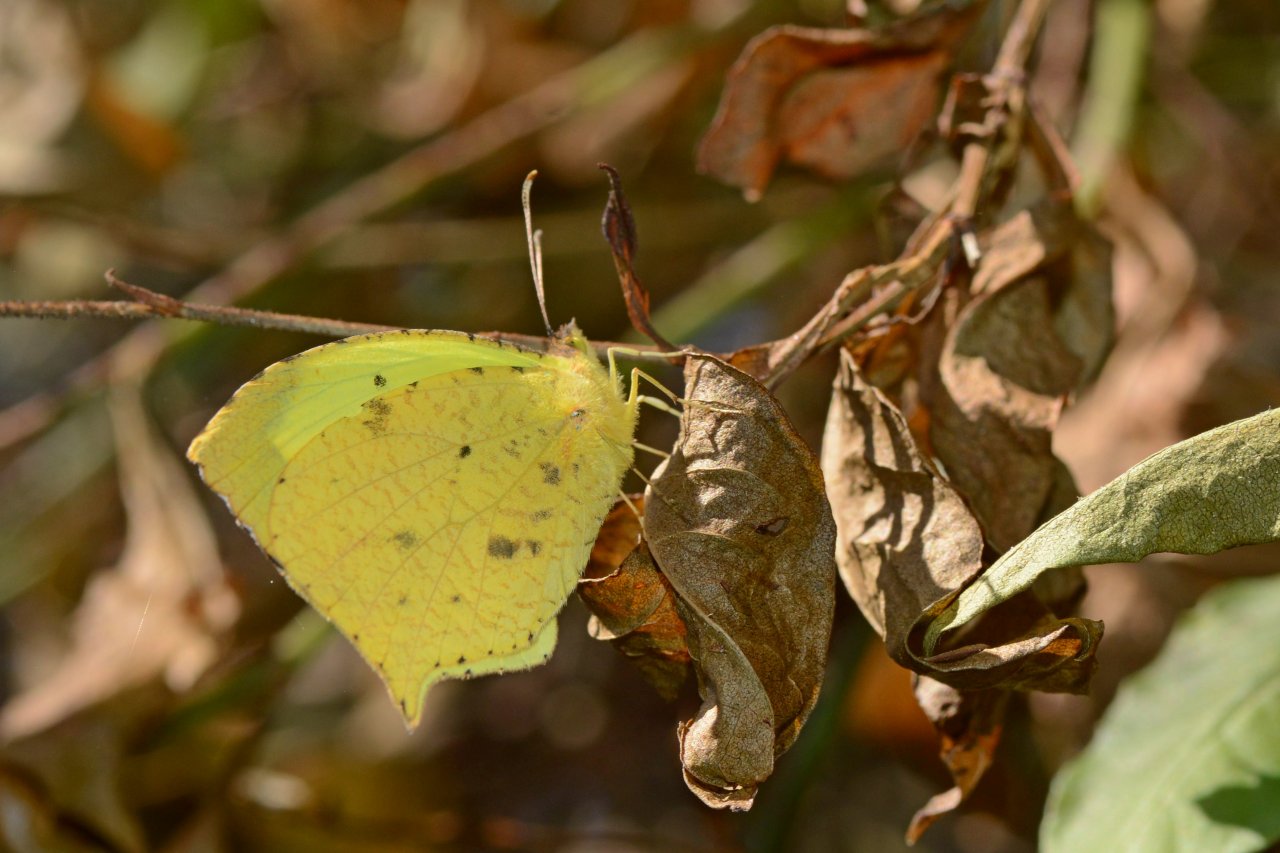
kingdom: Animalia
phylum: Arthropoda
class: Insecta
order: Lepidoptera
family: Pieridae
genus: Eurema
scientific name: Eurema salome
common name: Salome Yellow
